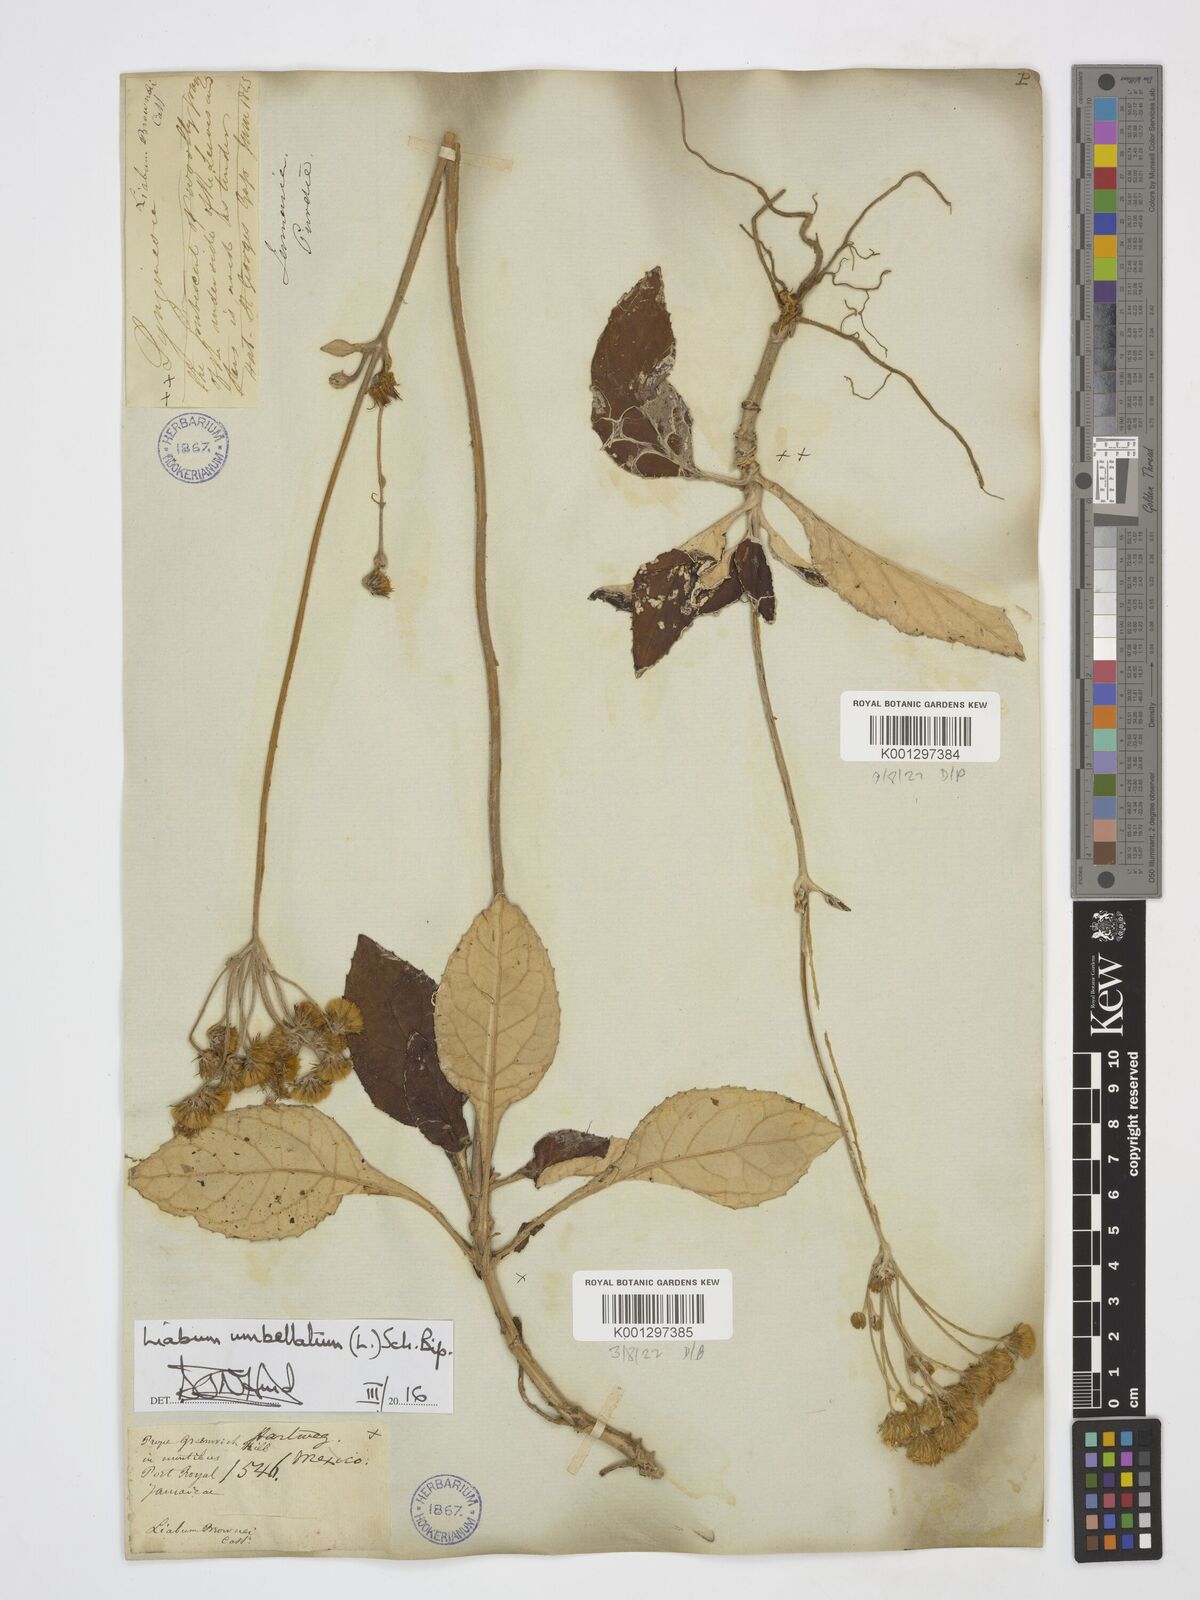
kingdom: Plantae
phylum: Tracheophyta
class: Magnoliopsida
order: Asterales
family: Asteraceae
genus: Liabum
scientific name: Liabum umbellatum
